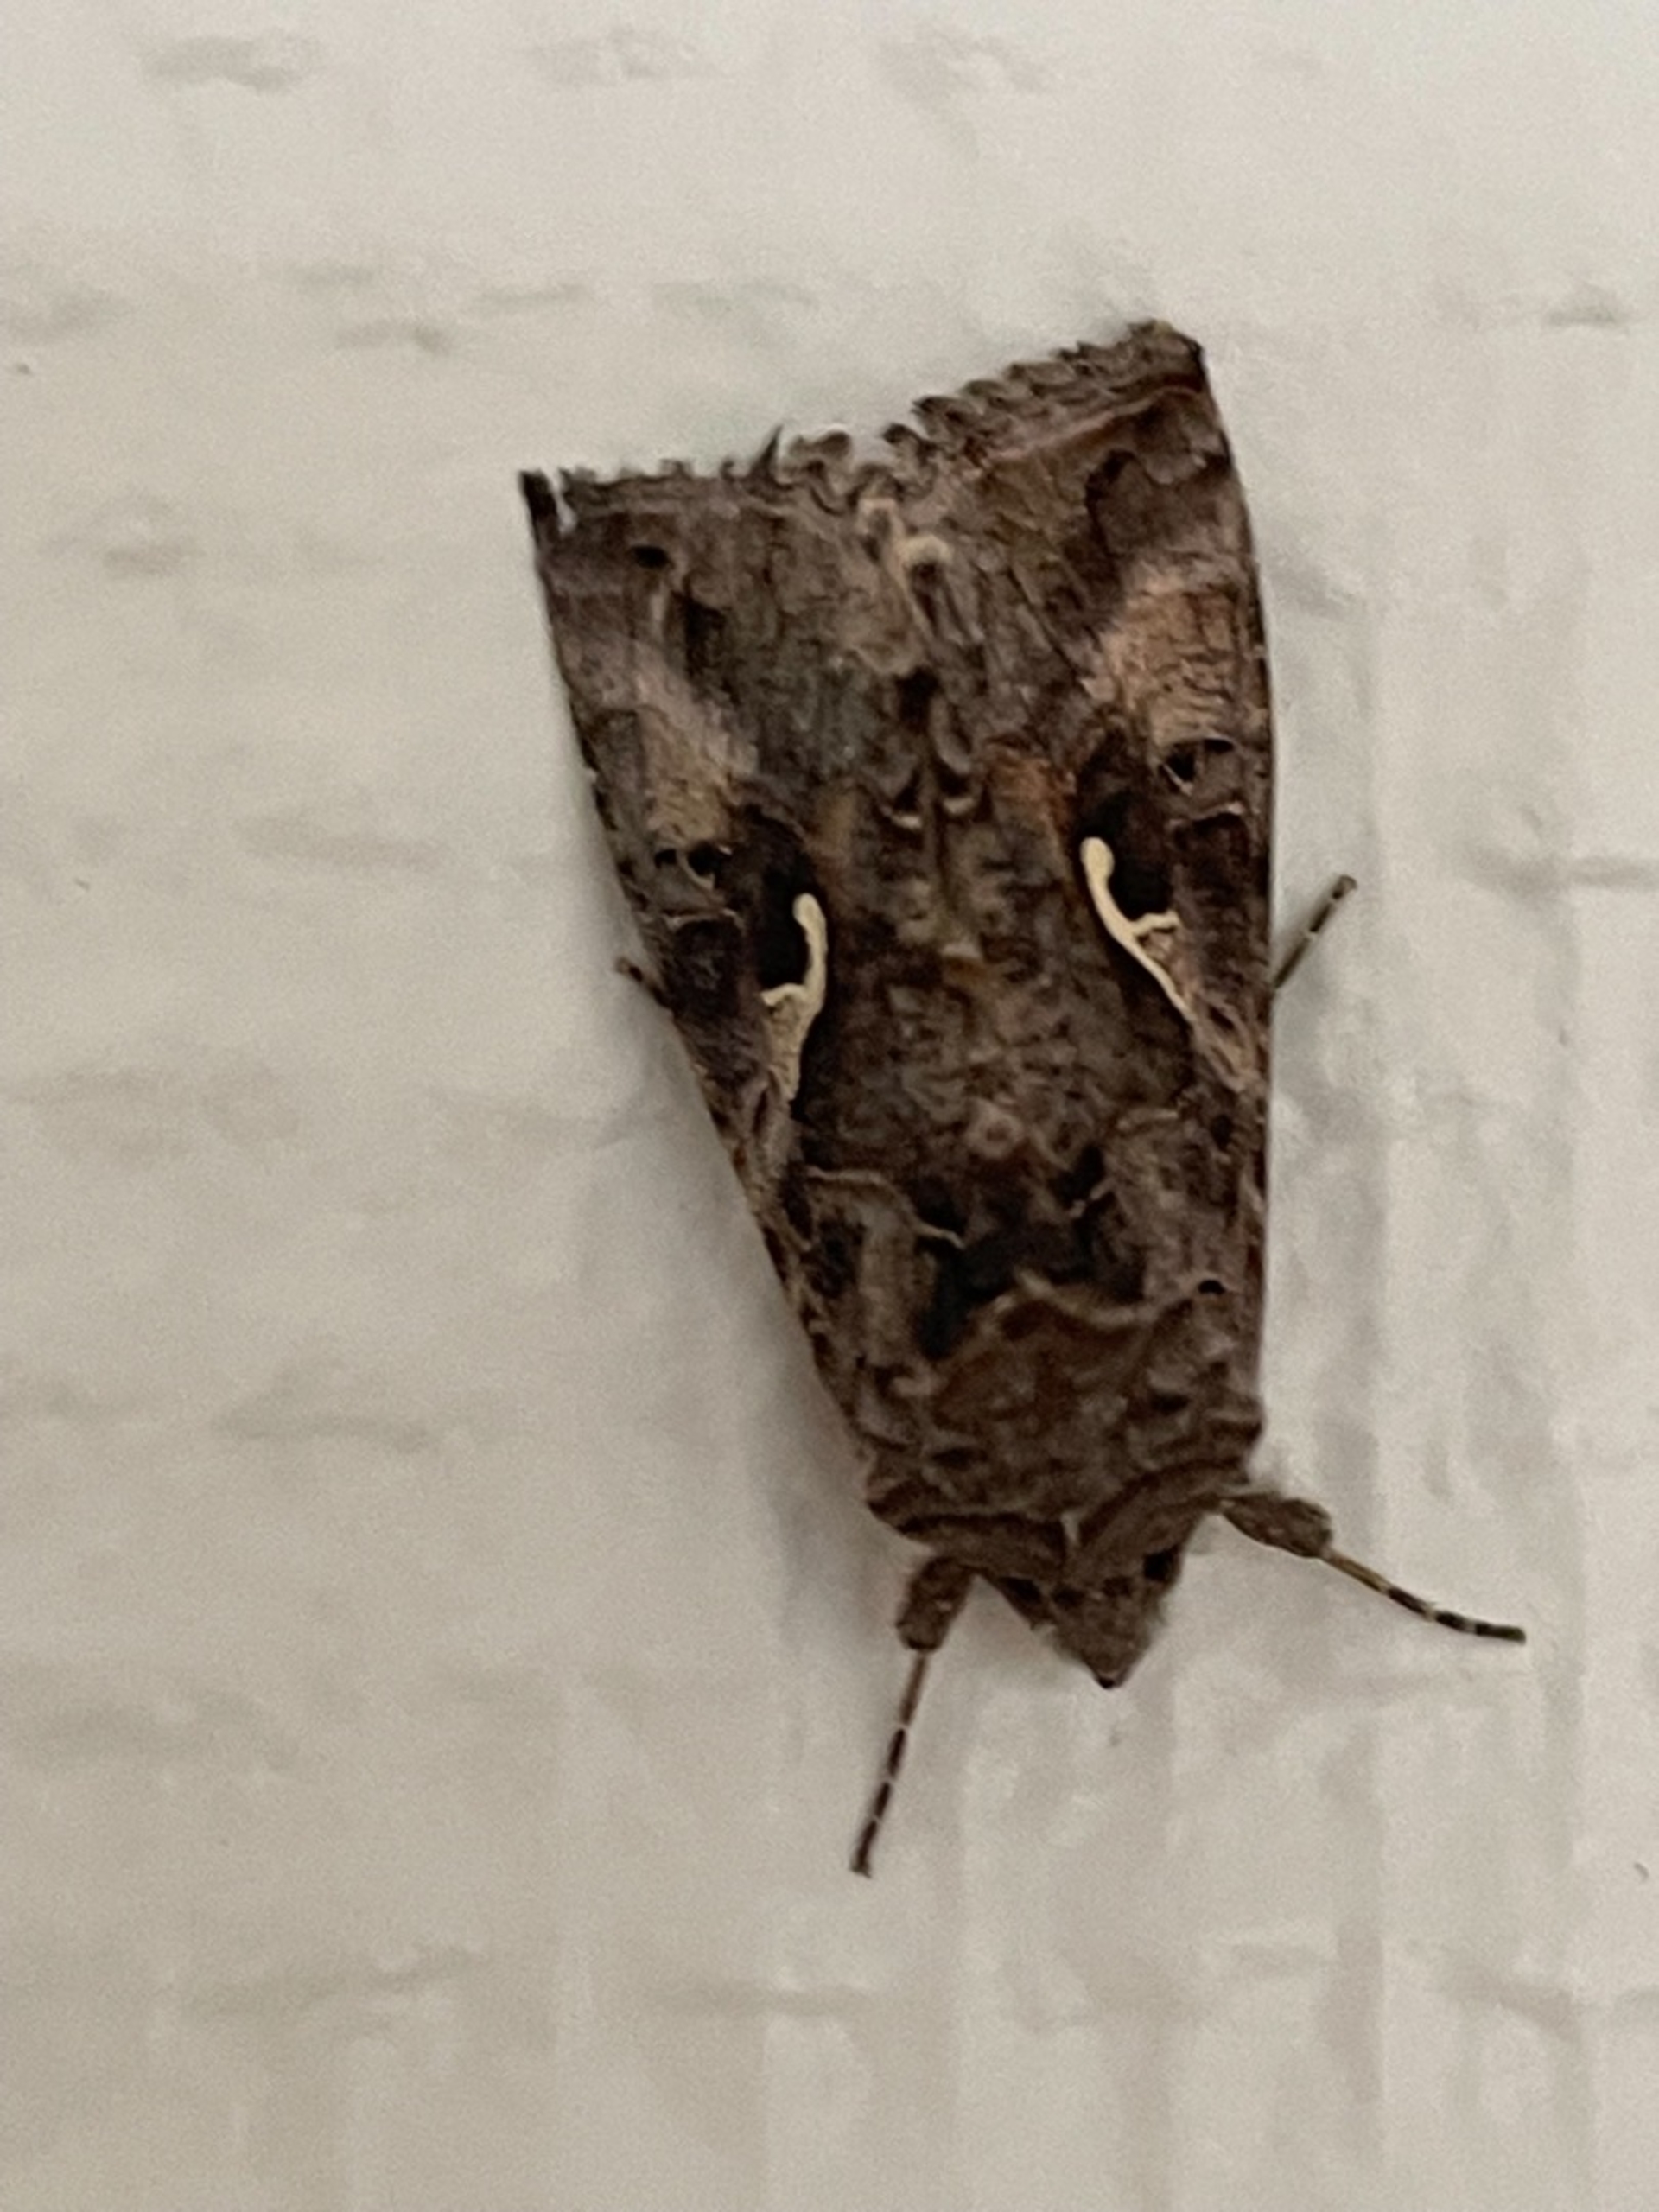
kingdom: Animalia
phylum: Arthropoda
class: Insecta
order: Lepidoptera
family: Noctuidae
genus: Autographa
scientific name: Autographa gamma
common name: Gammaugle
